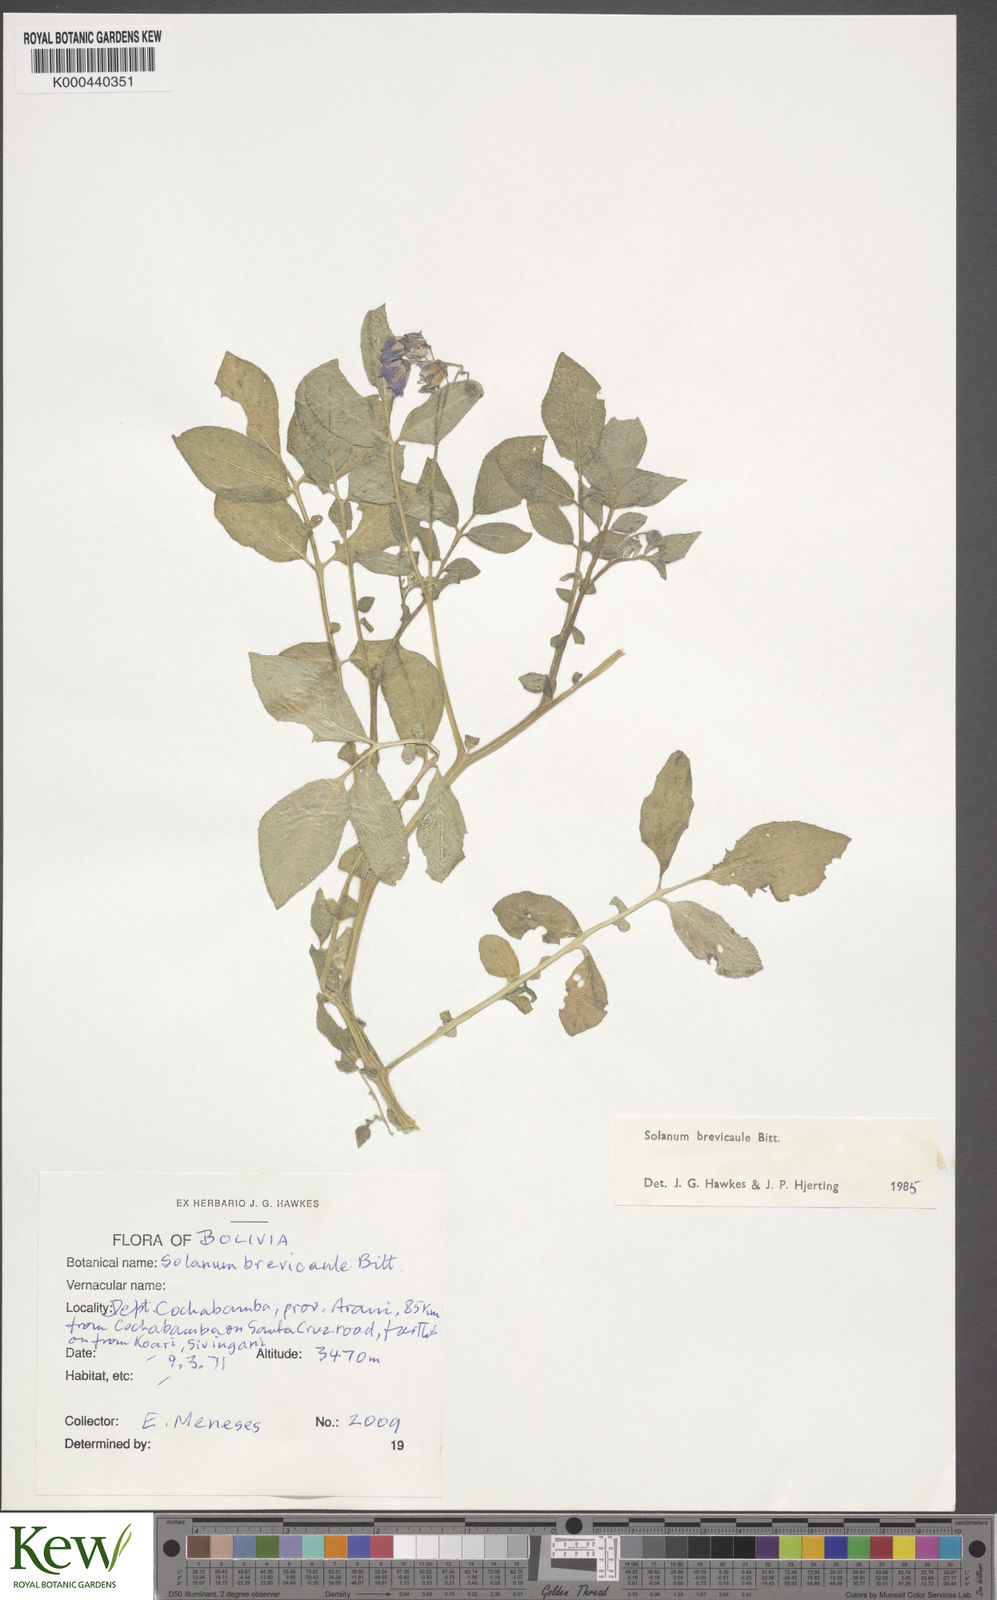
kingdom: Plantae
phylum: Tracheophyta
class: Magnoliopsida
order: Solanales
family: Solanaceae
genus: Solanum
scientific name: Solanum brevicaule
